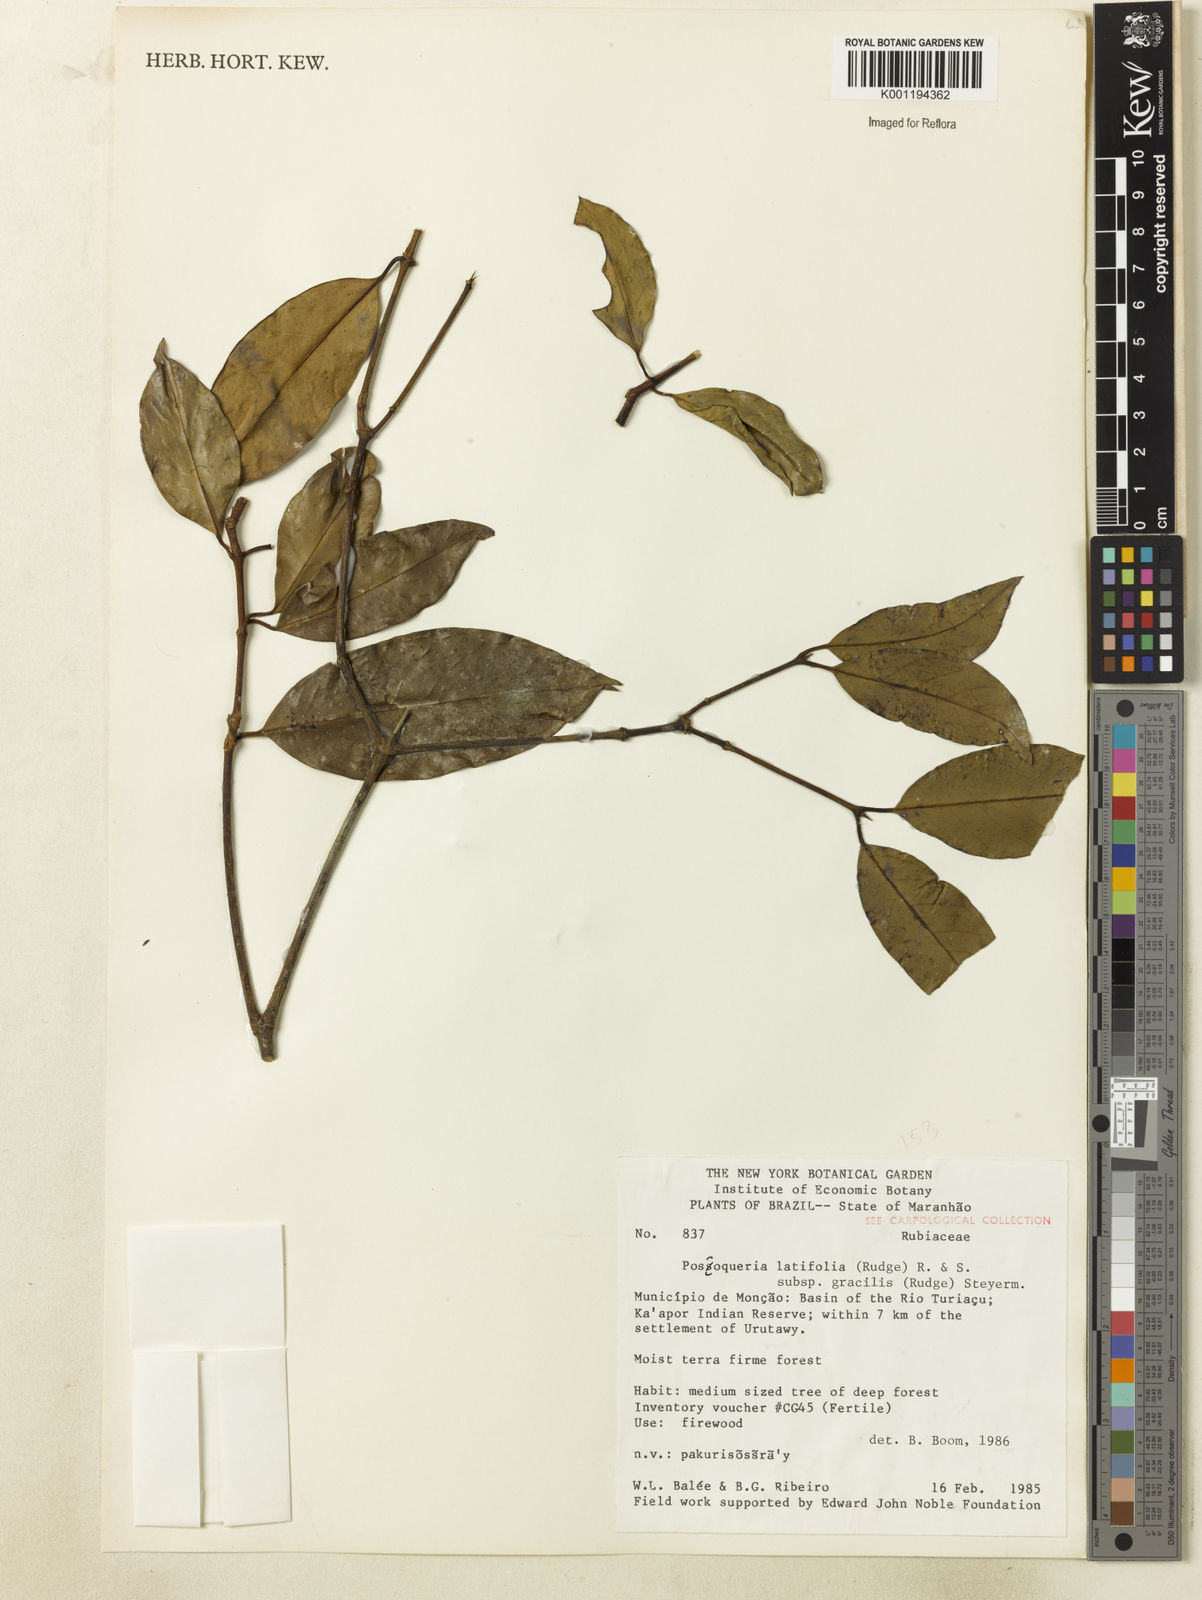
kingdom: Plantae
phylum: Tracheophyta
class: Magnoliopsida
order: Gentianales
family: Rubiaceae
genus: Posoqueria
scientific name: Posoqueria latifolia
